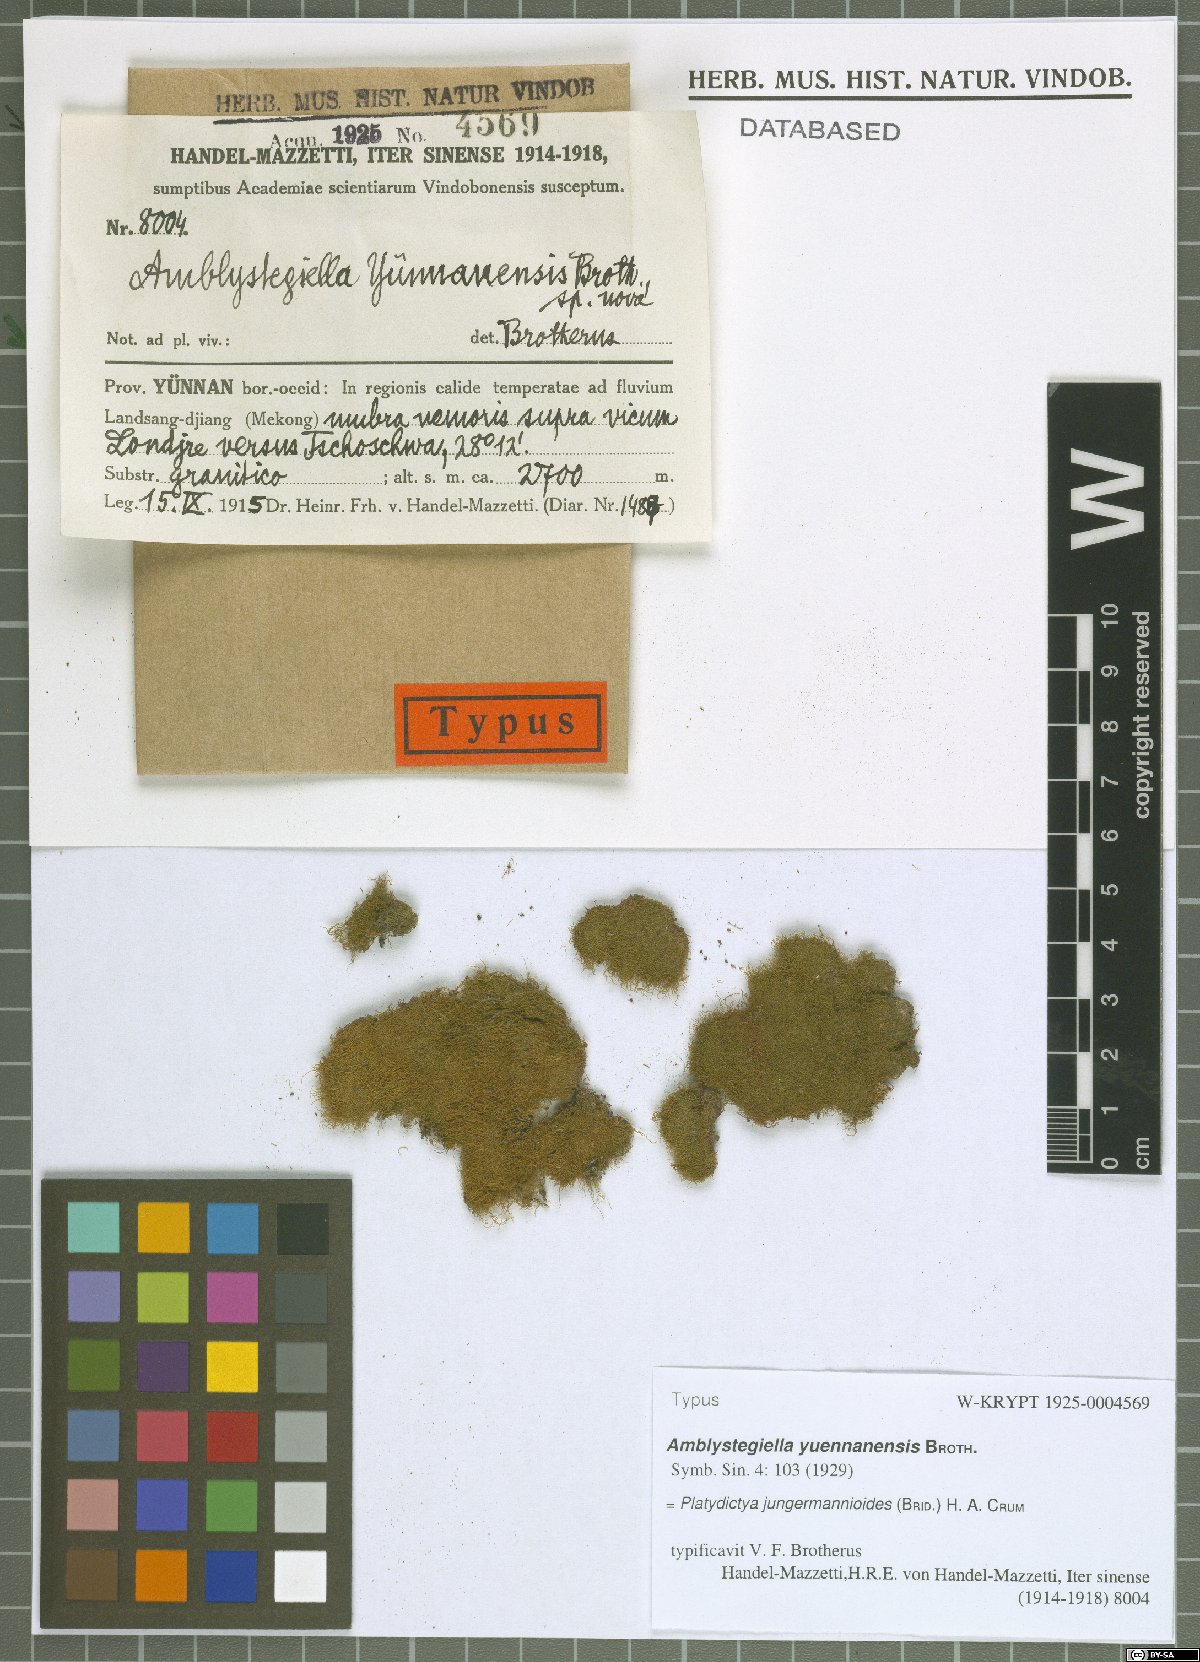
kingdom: Plantae
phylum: Bryophyta
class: Bryopsida
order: Hypnales
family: Plagiotheciaceae
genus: Platydictya
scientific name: Platydictya jungermannioides
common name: False willow moss
